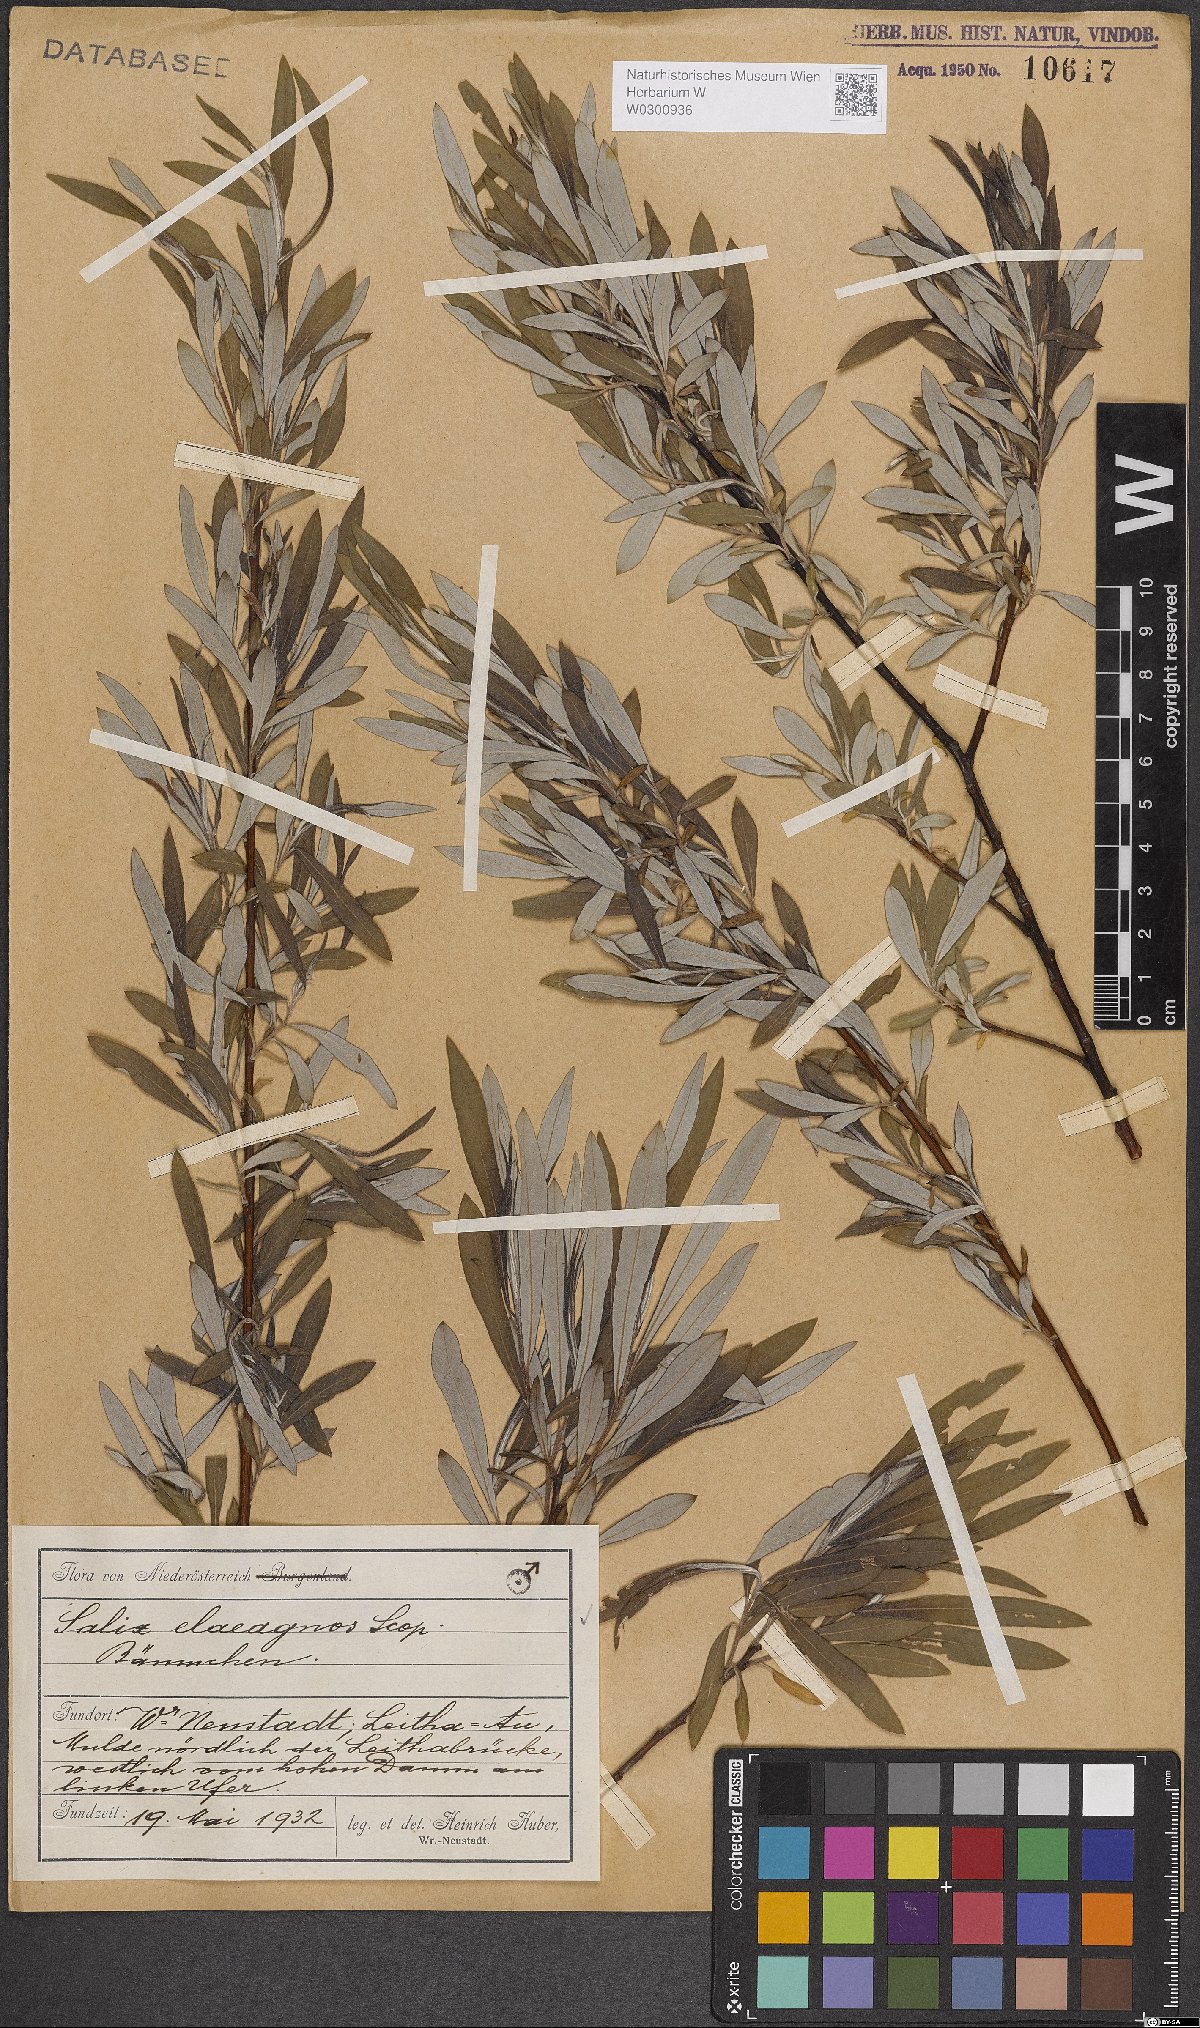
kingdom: Plantae
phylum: Tracheophyta
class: Magnoliopsida
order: Malpighiales
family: Salicaceae
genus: Salix
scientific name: Salix eleagnos
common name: Elaeagnus willow
